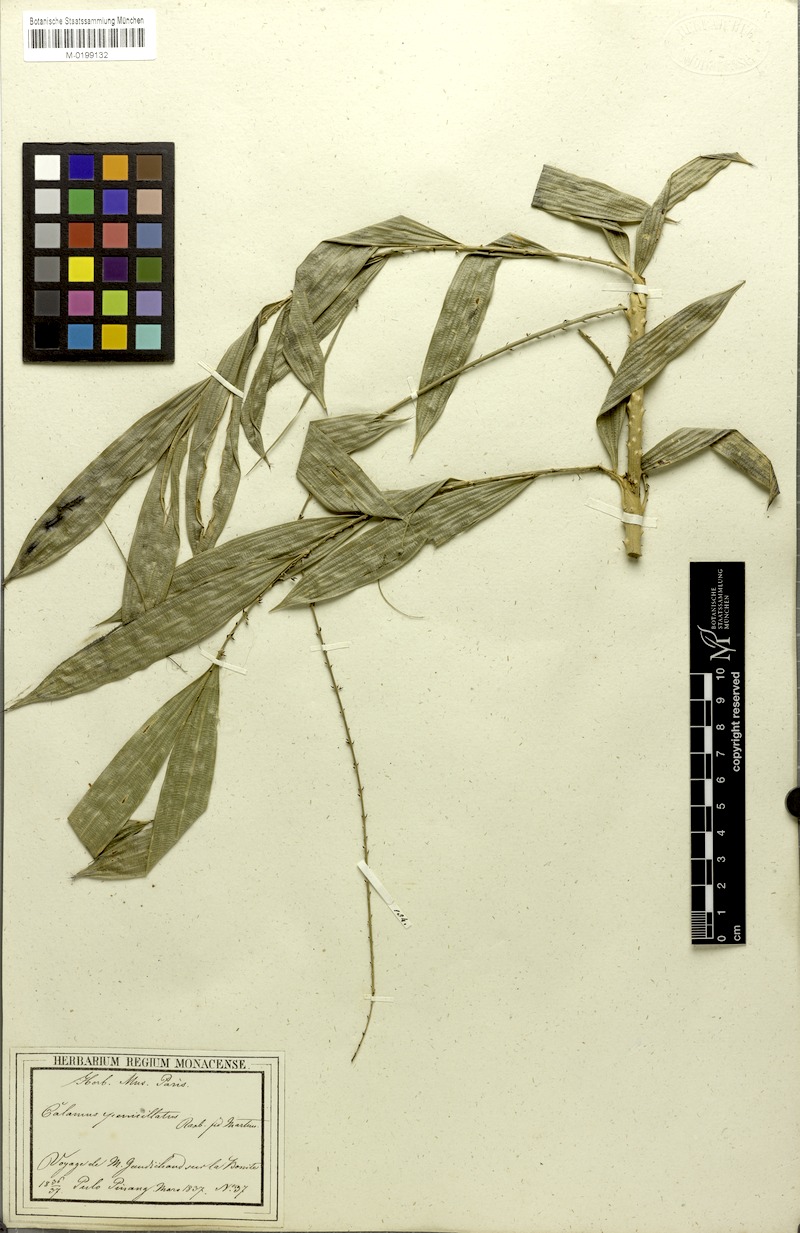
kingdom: Plantae
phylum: Tracheophyta
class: Liliopsida
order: Arecales
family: Arecaceae
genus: Calamus
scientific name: Calamus penicillatus
